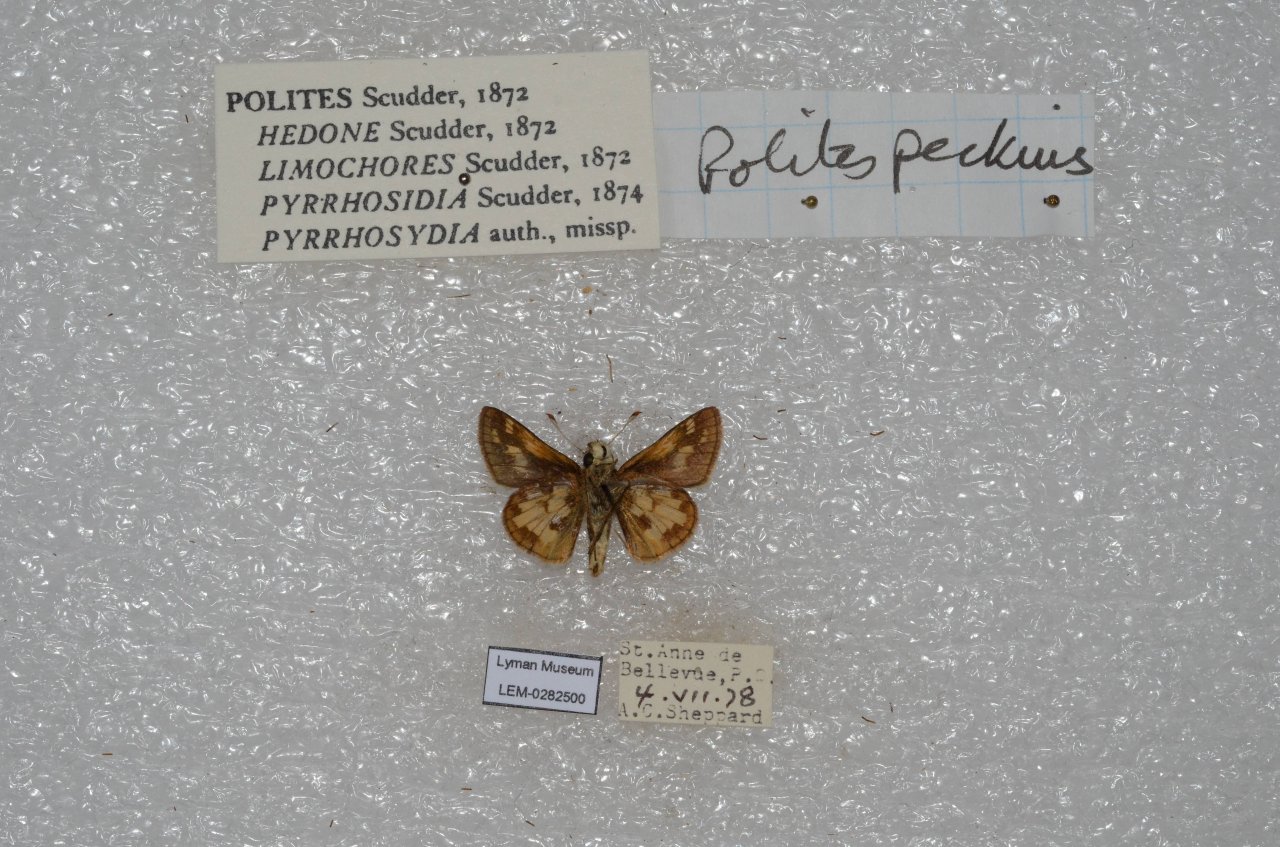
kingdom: Animalia
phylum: Arthropoda
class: Insecta
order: Lepidoptera
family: Hesperiidae
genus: Polites
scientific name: Polites coras
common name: Peck's Skipper
